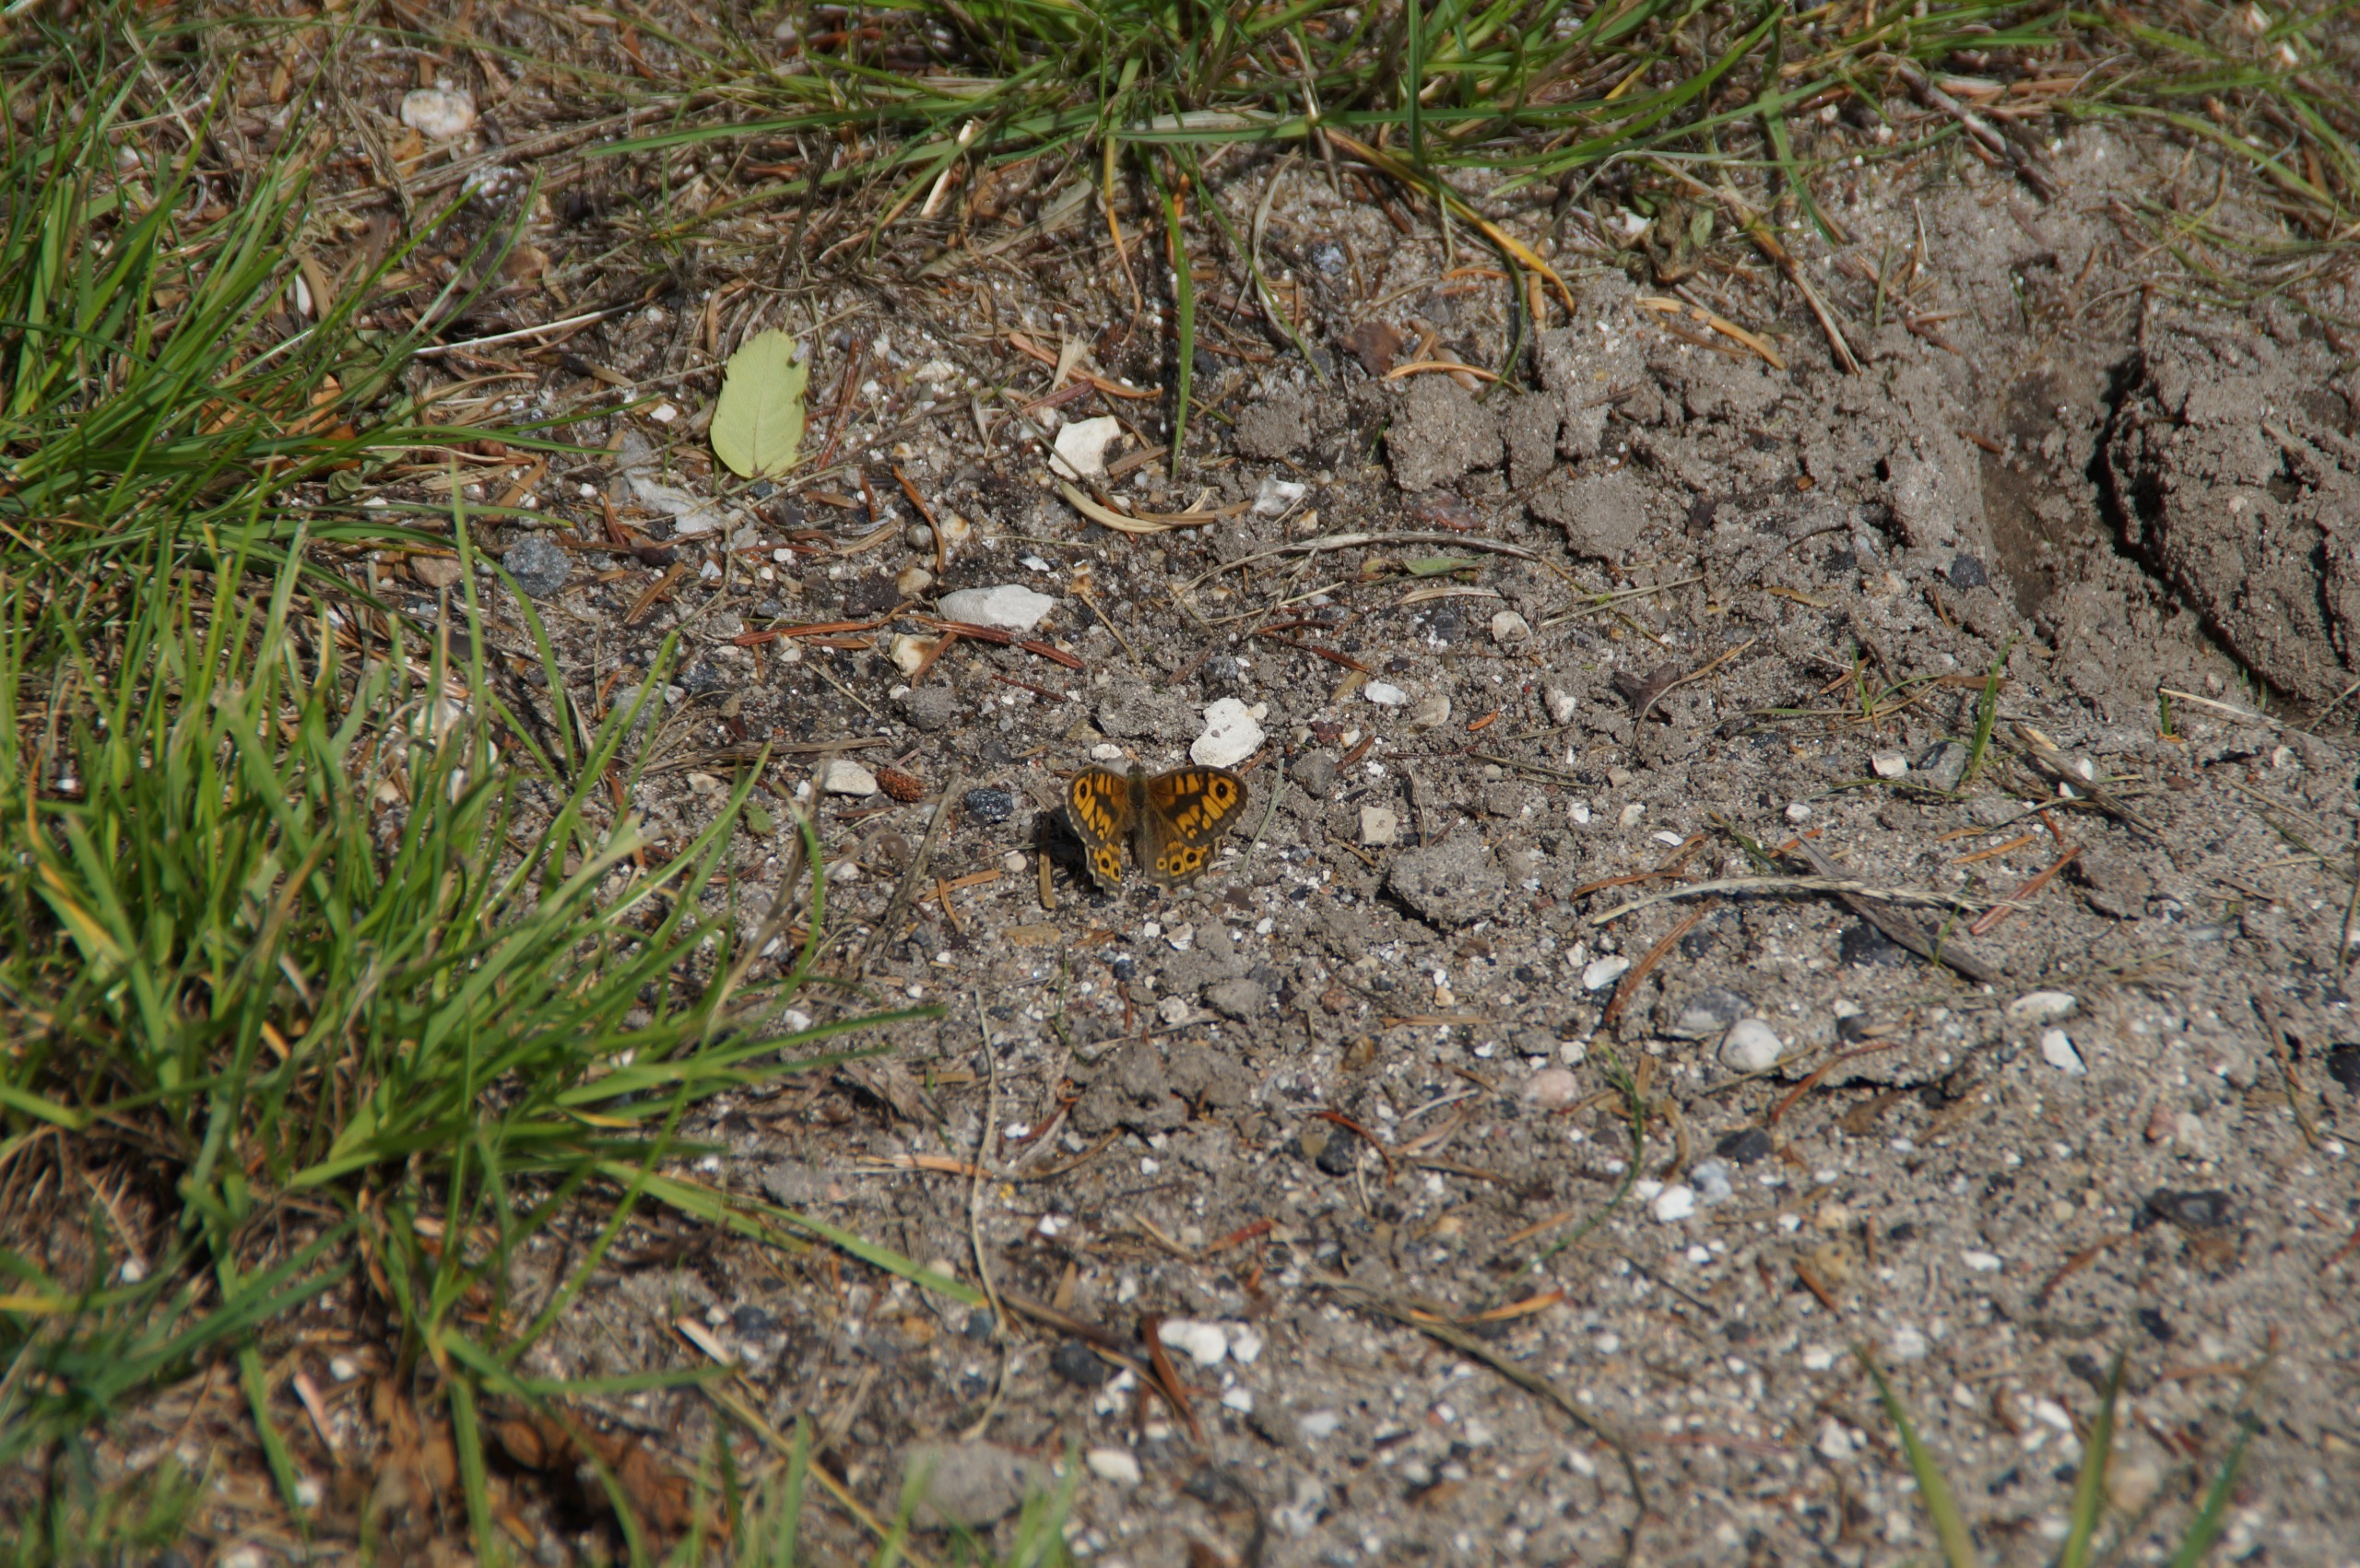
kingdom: Animalia
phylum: Arthropoda
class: Insecta
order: Lepidoptera
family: Nymphalidae
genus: Pararge
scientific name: Pararge Lasiommata megera
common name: Vejrandøje
